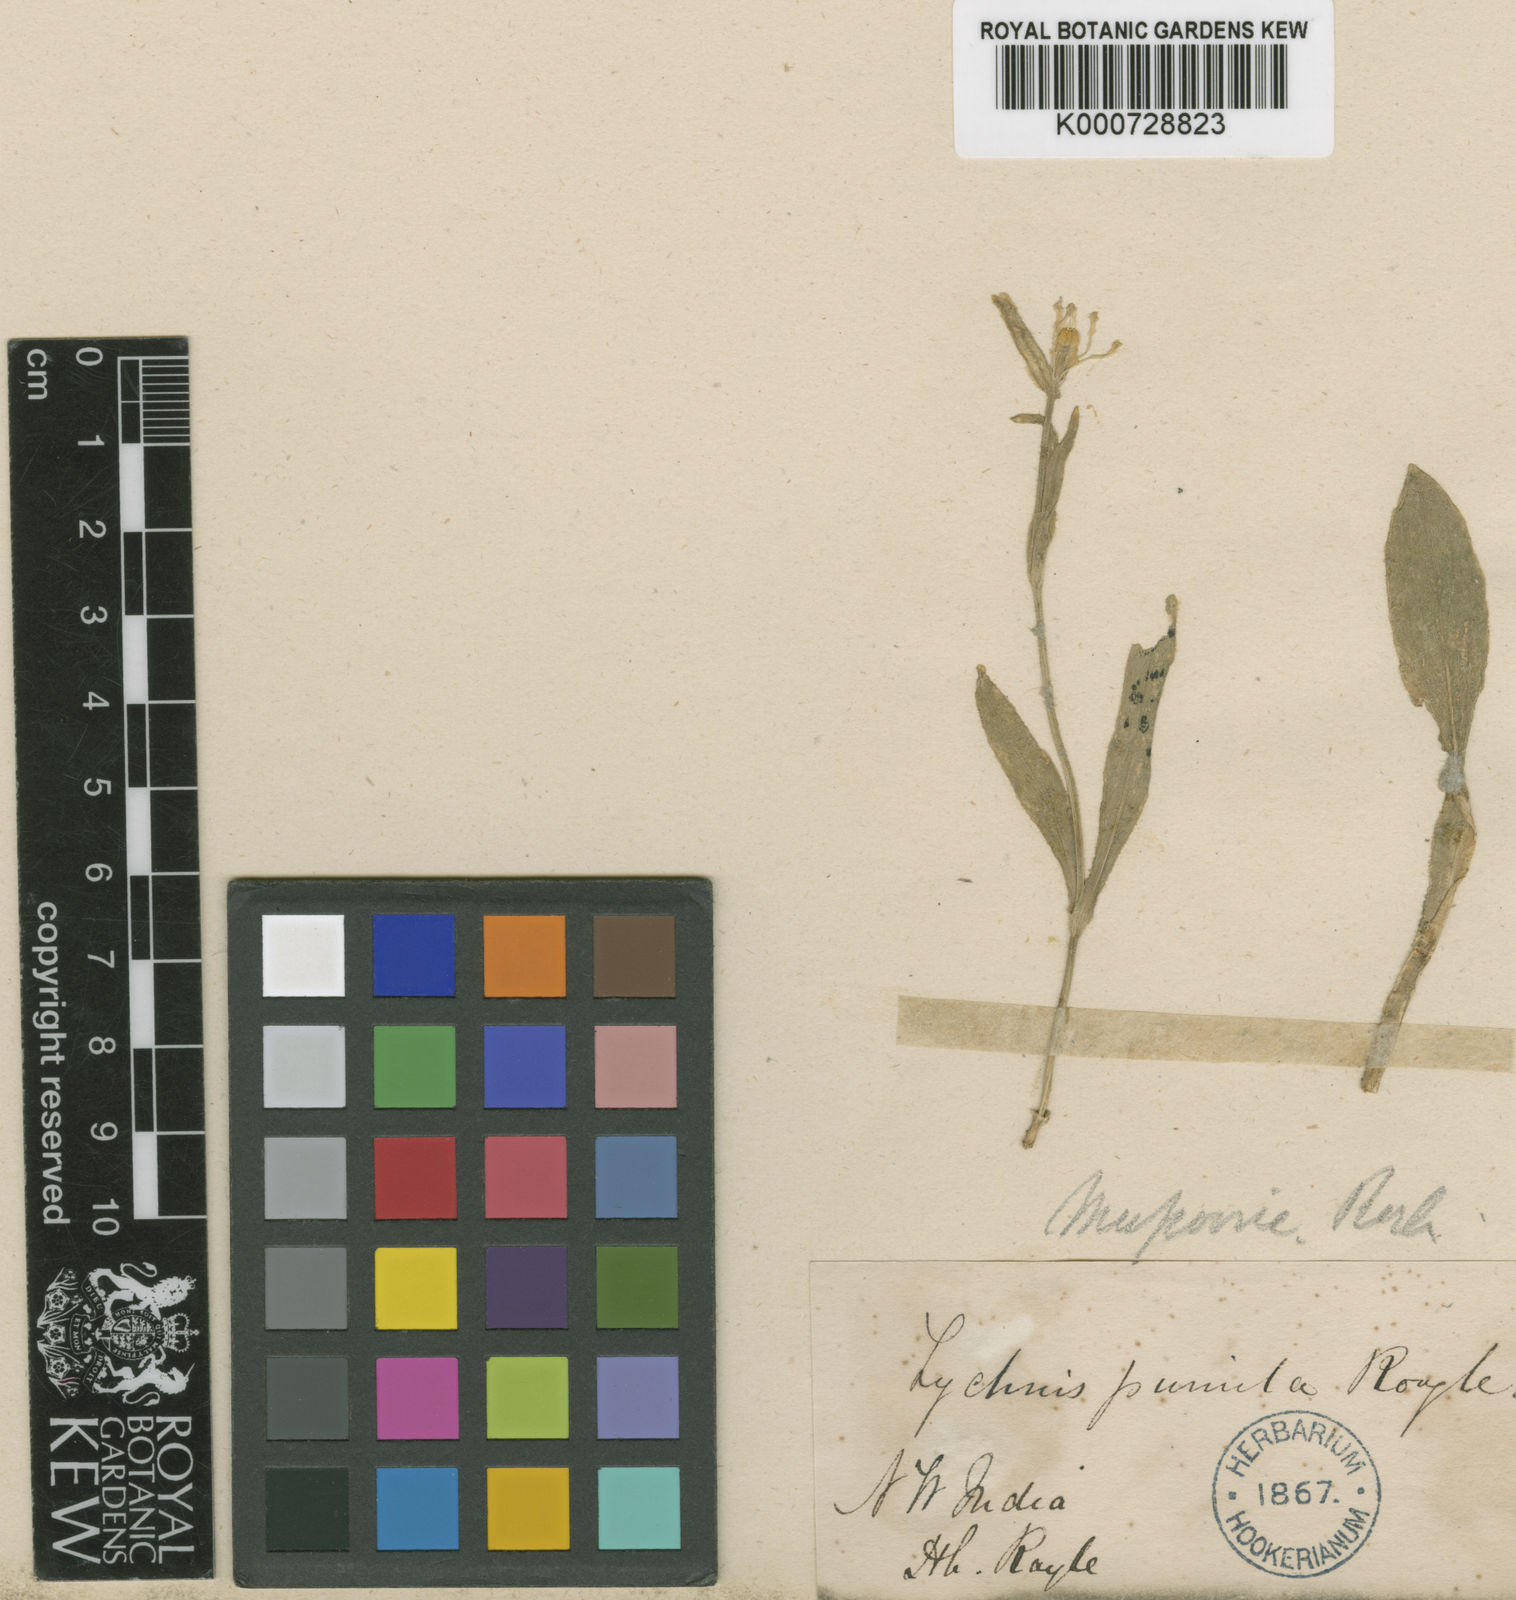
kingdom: Plantae
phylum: Tracheophyta
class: Magnoliopsida
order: Caryophyllales
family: Caryophyllaceae
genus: Silene
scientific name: Silene
